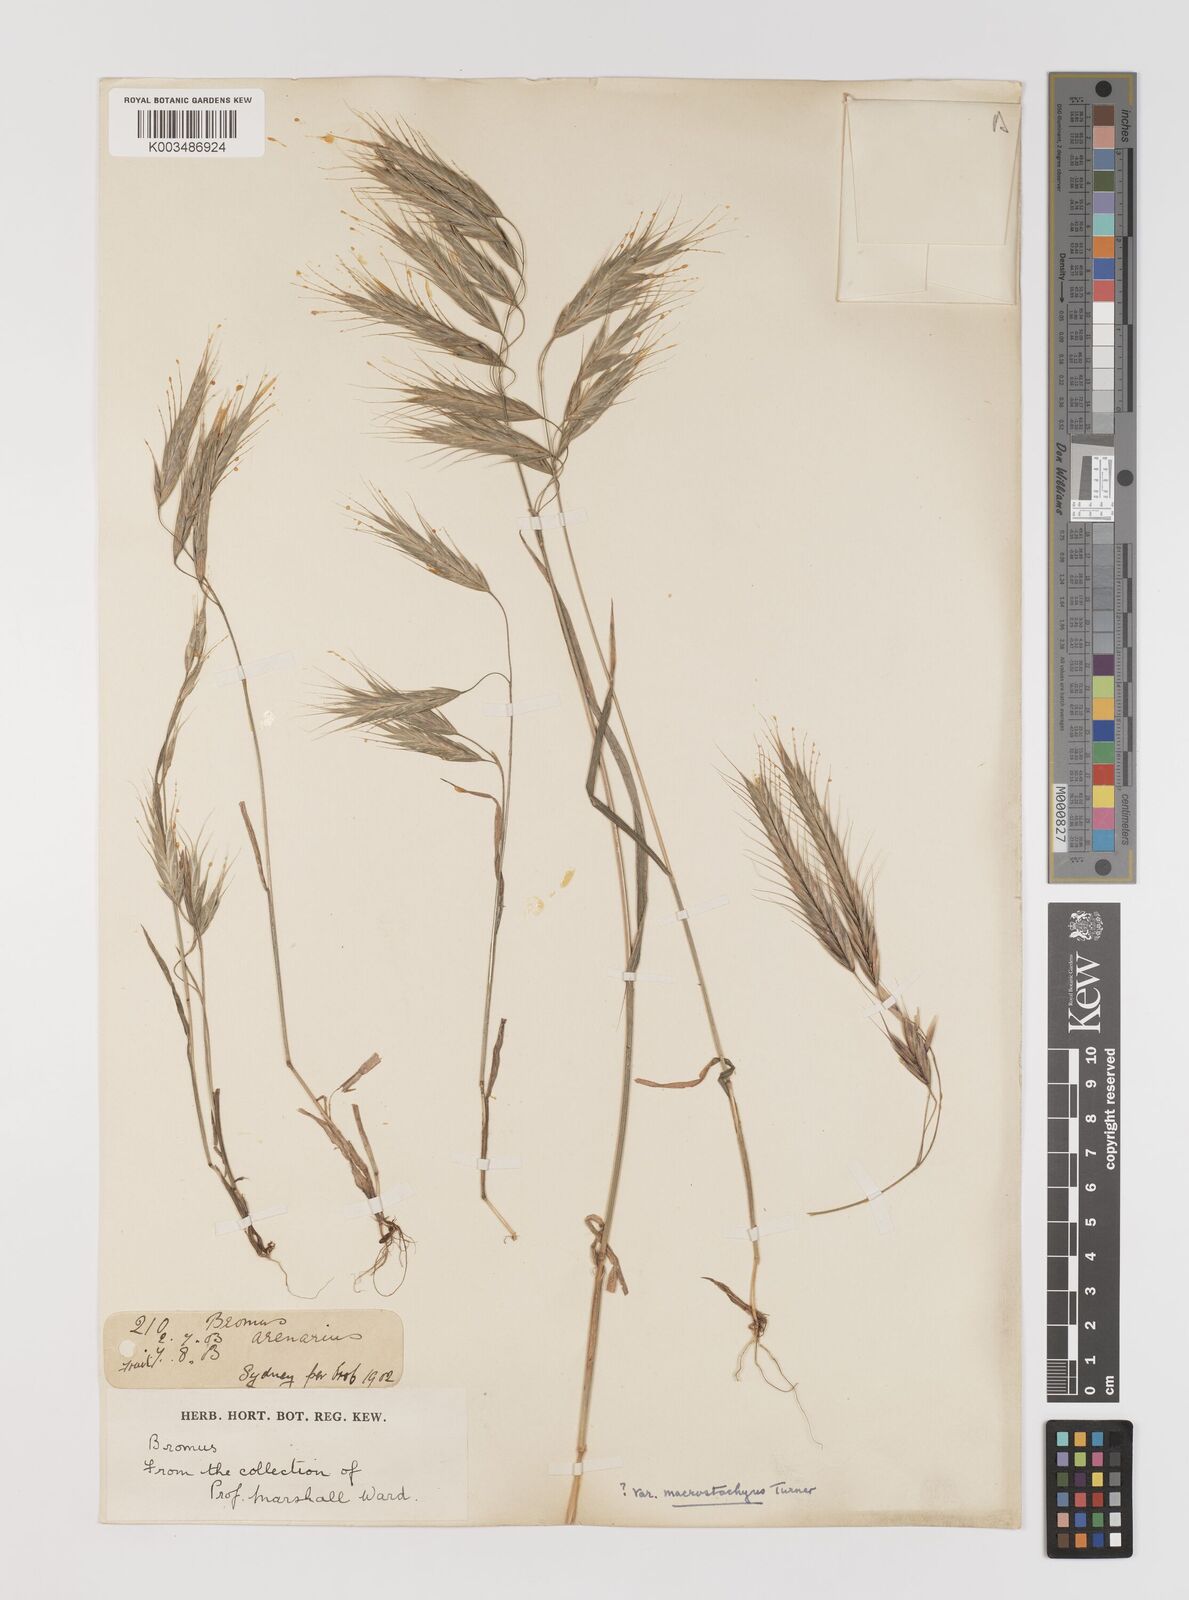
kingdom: Plantae
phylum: Tracheophyta
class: Liliopsida
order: Poales
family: Poaceae
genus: Bromus
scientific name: Bromus arenarius
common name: Australian brome
